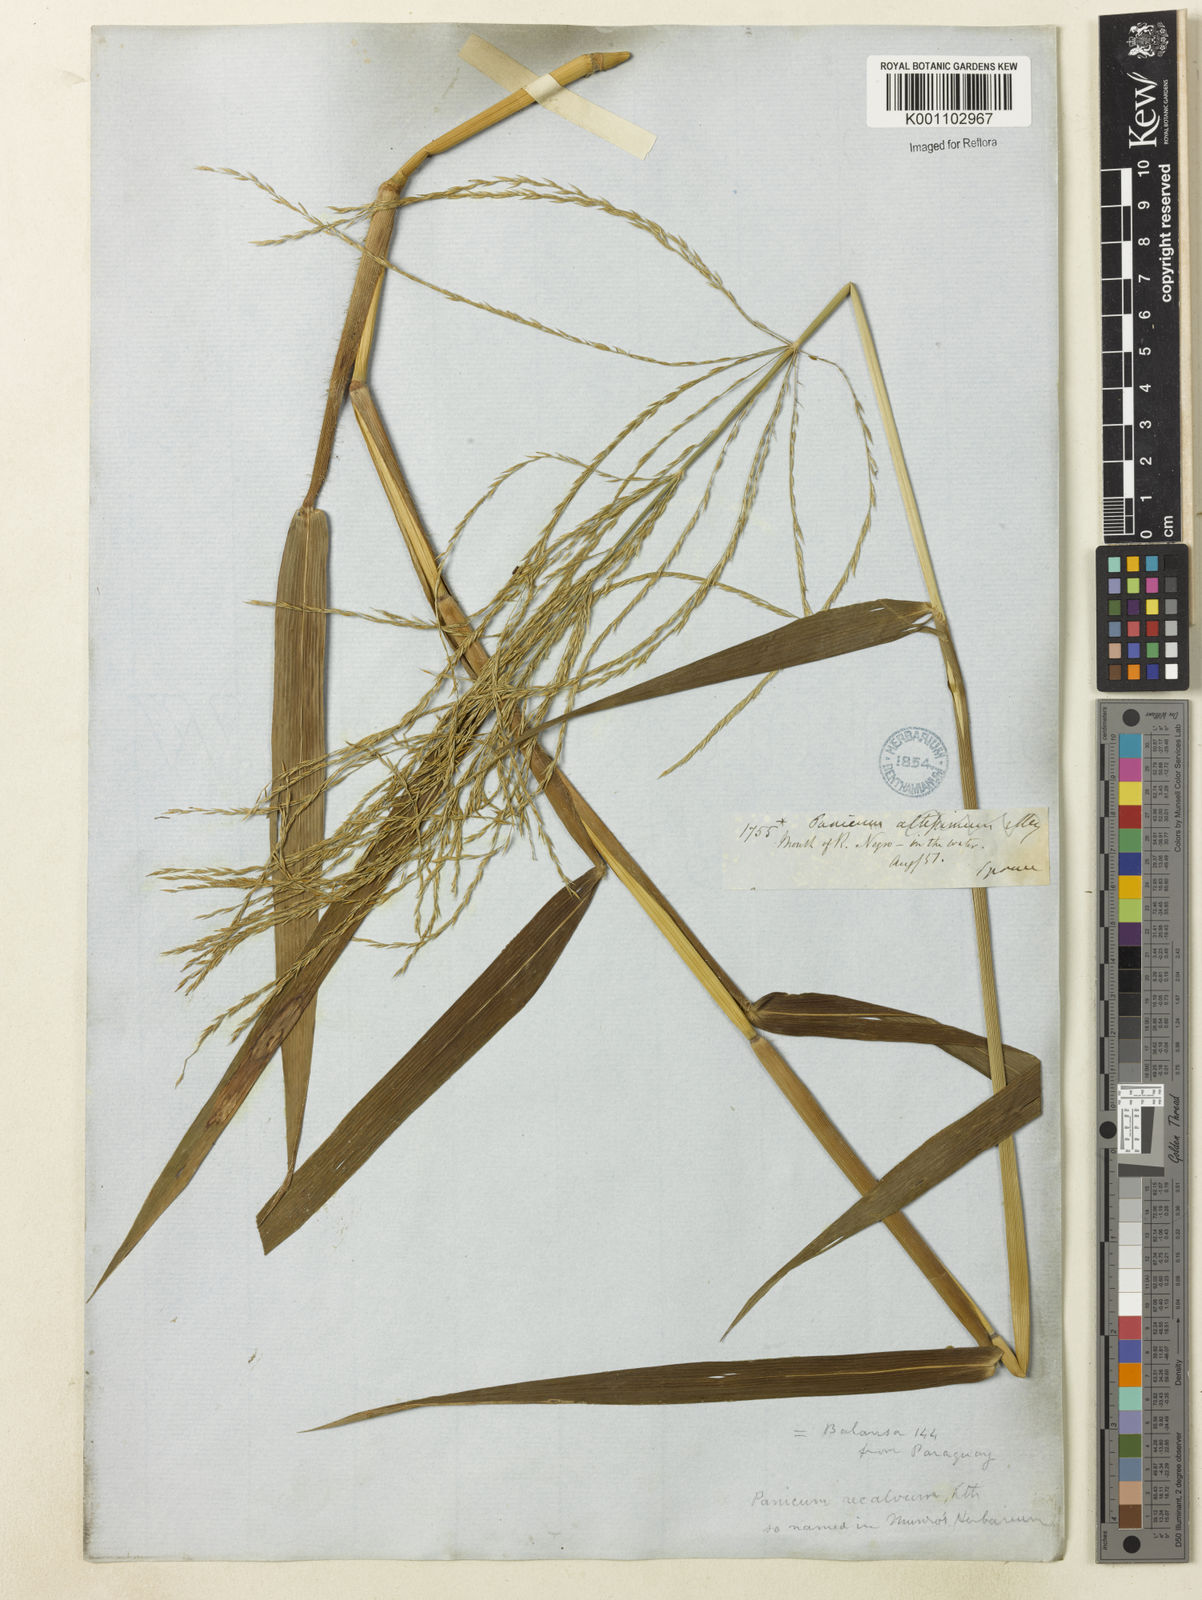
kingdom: Plantae
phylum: Tracheophyta
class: Liliopsida
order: Poales
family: Poaceae
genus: Digitaria
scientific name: Digitaria laxa
